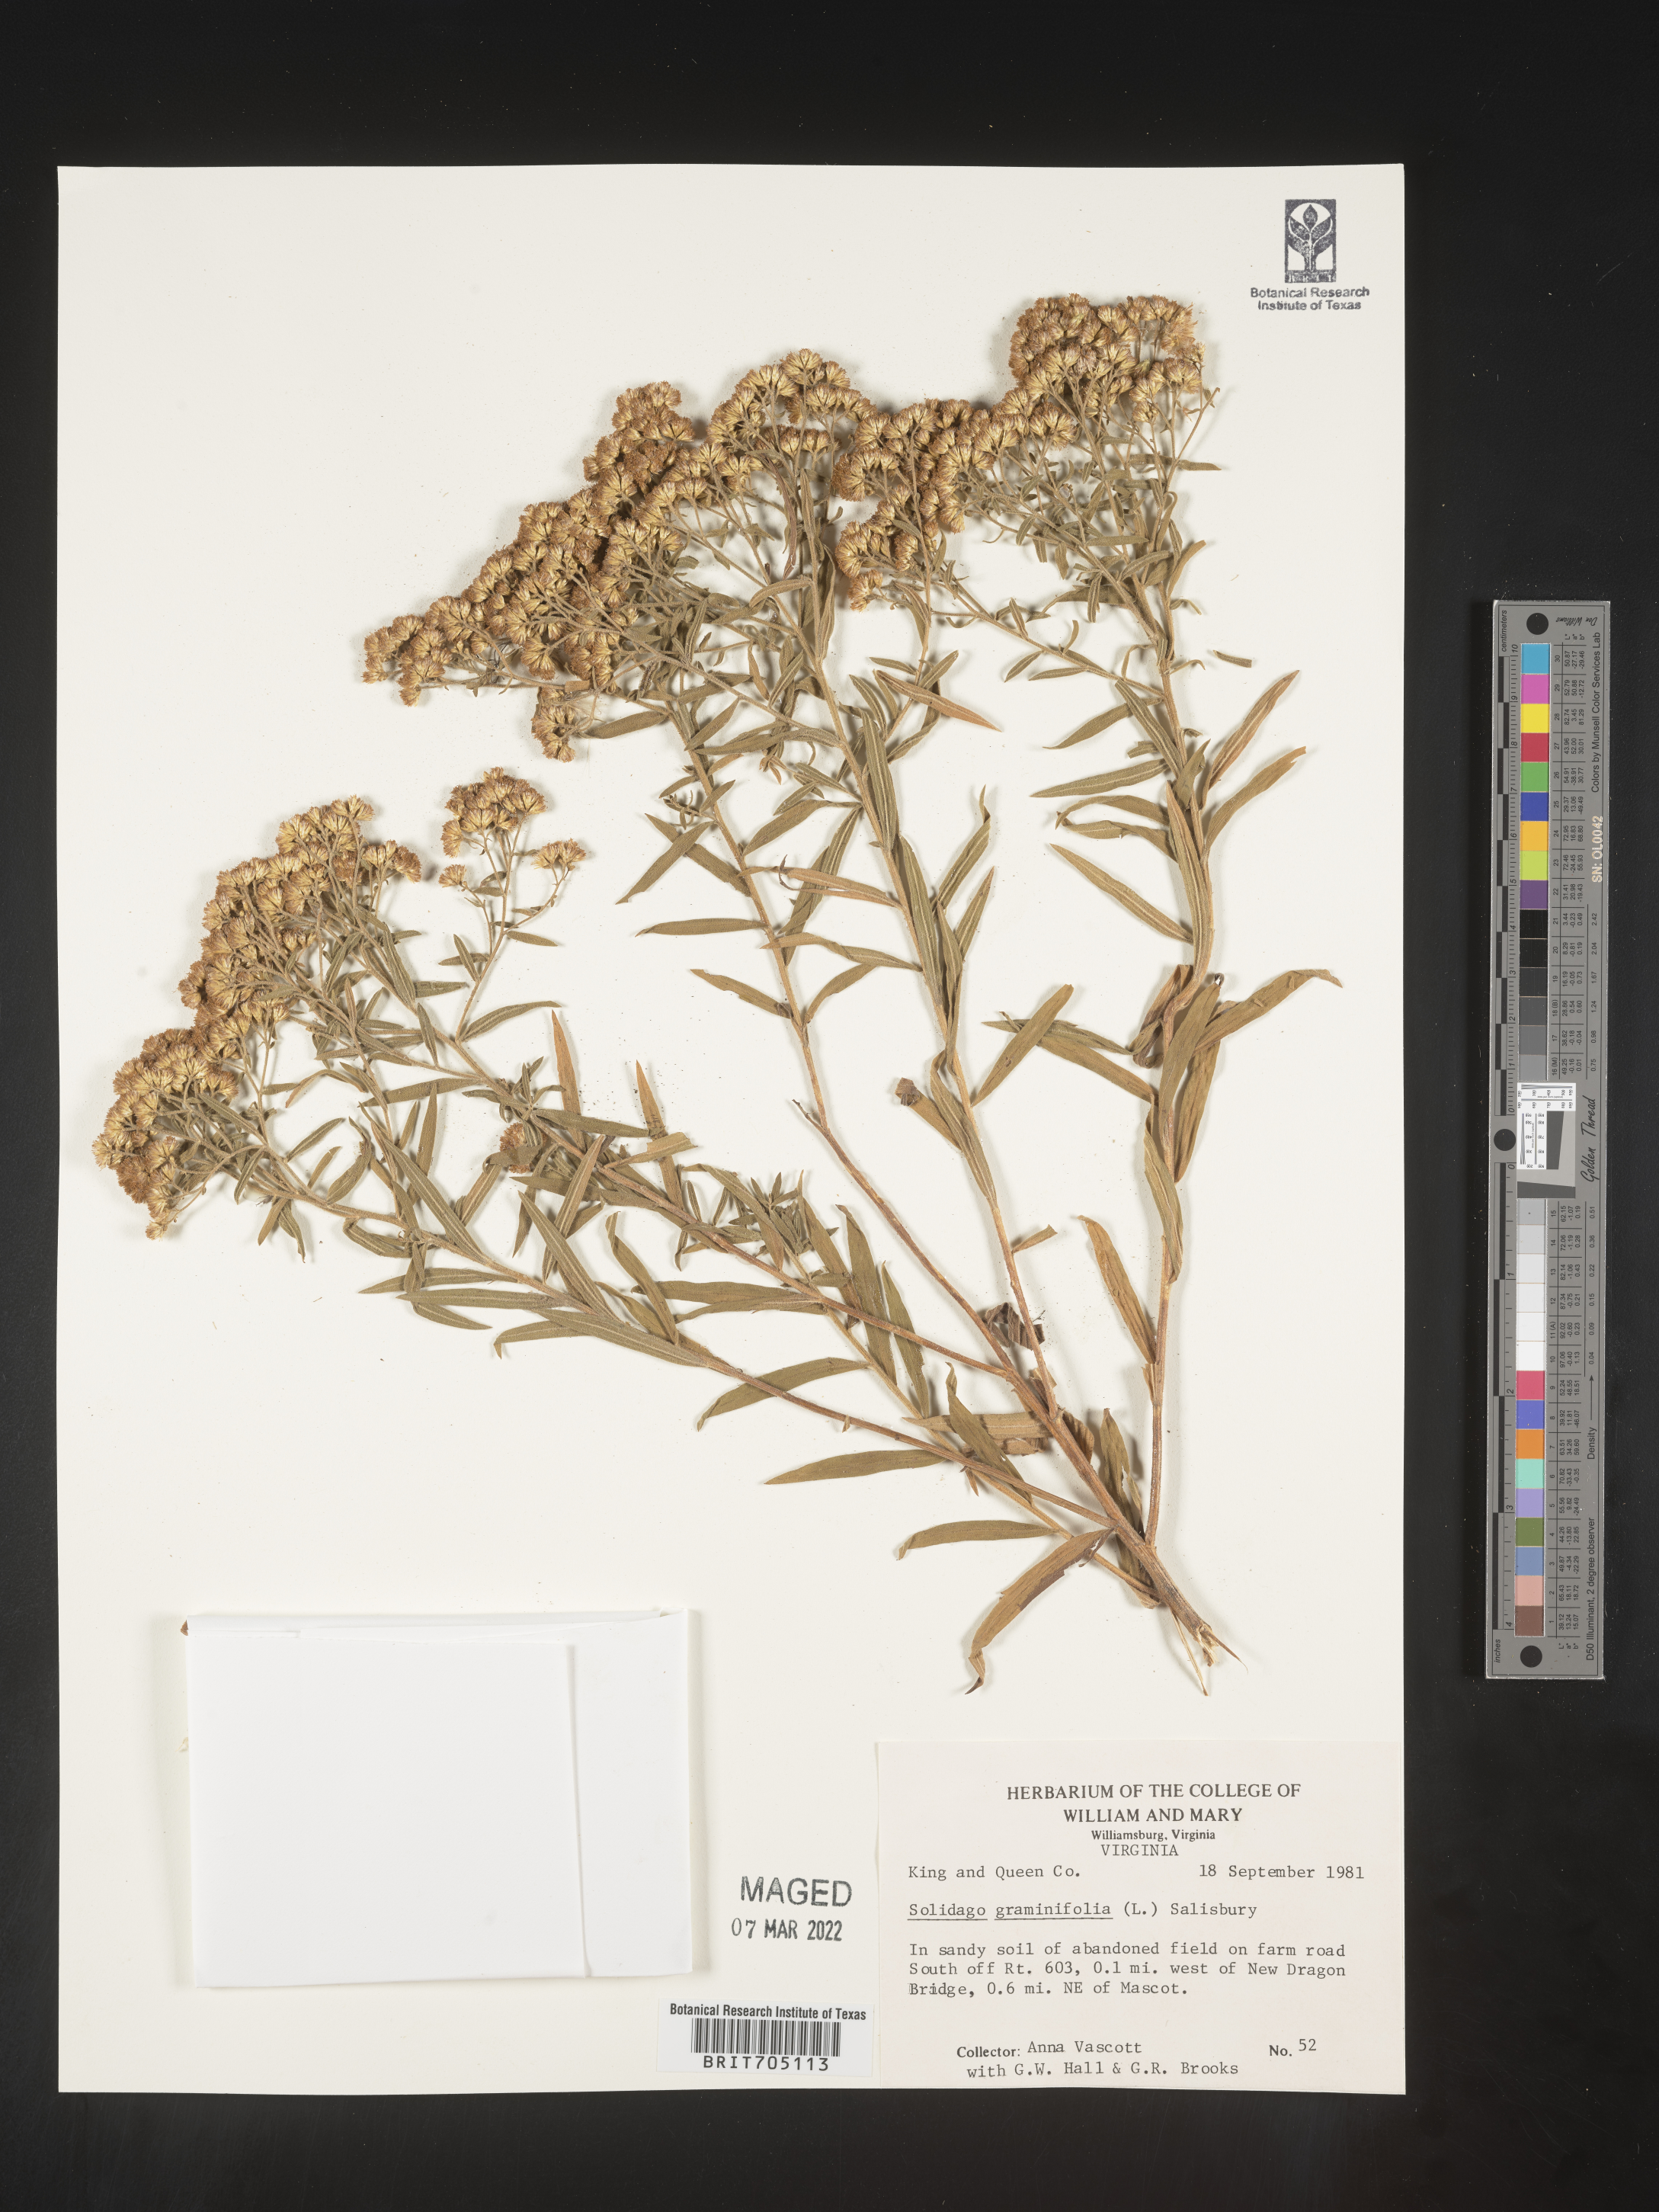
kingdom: Plantae
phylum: Tracheophyta
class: Magnoliopsida
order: Asterales
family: Asteraceae
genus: Euthamia
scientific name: Euthamia graminifolia
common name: Common goldentop
